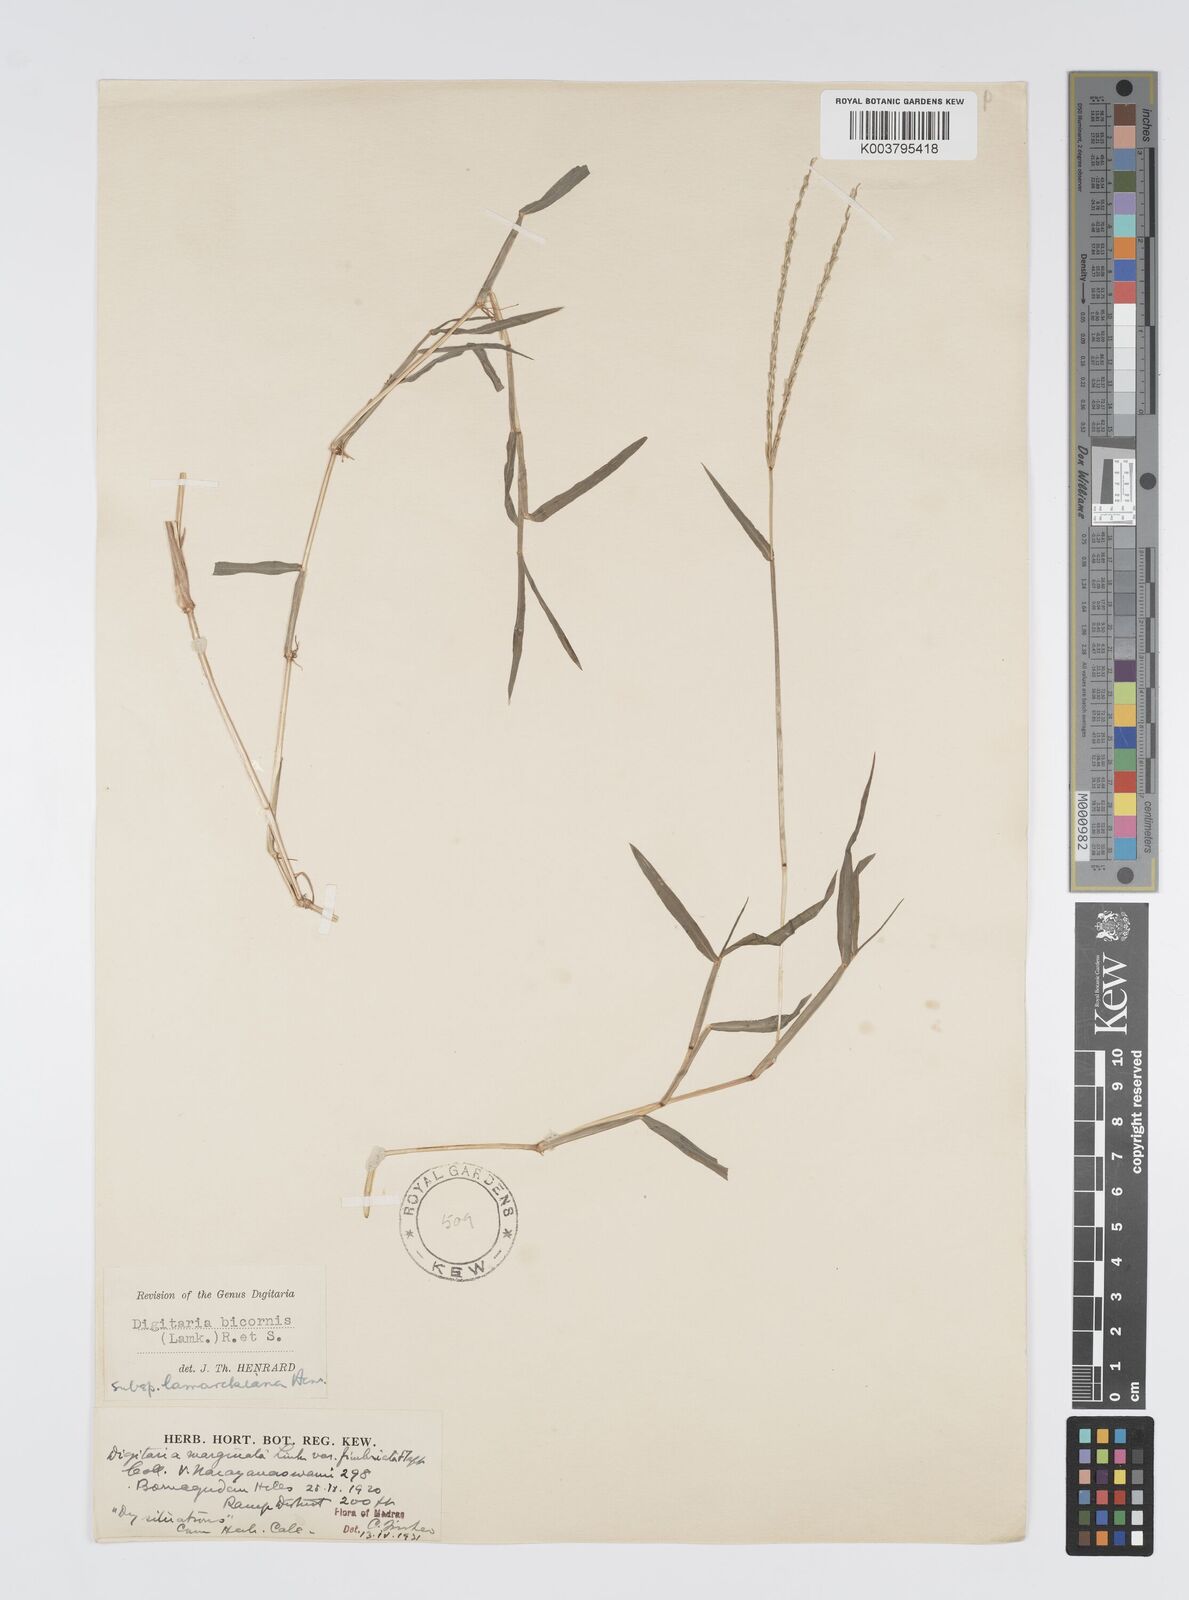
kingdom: Plantae
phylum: Tracheophyta
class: Liliopsida
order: Poales
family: Poaceae
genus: Digitaria
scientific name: Digitaria bicornis
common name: Asian crabgrass
